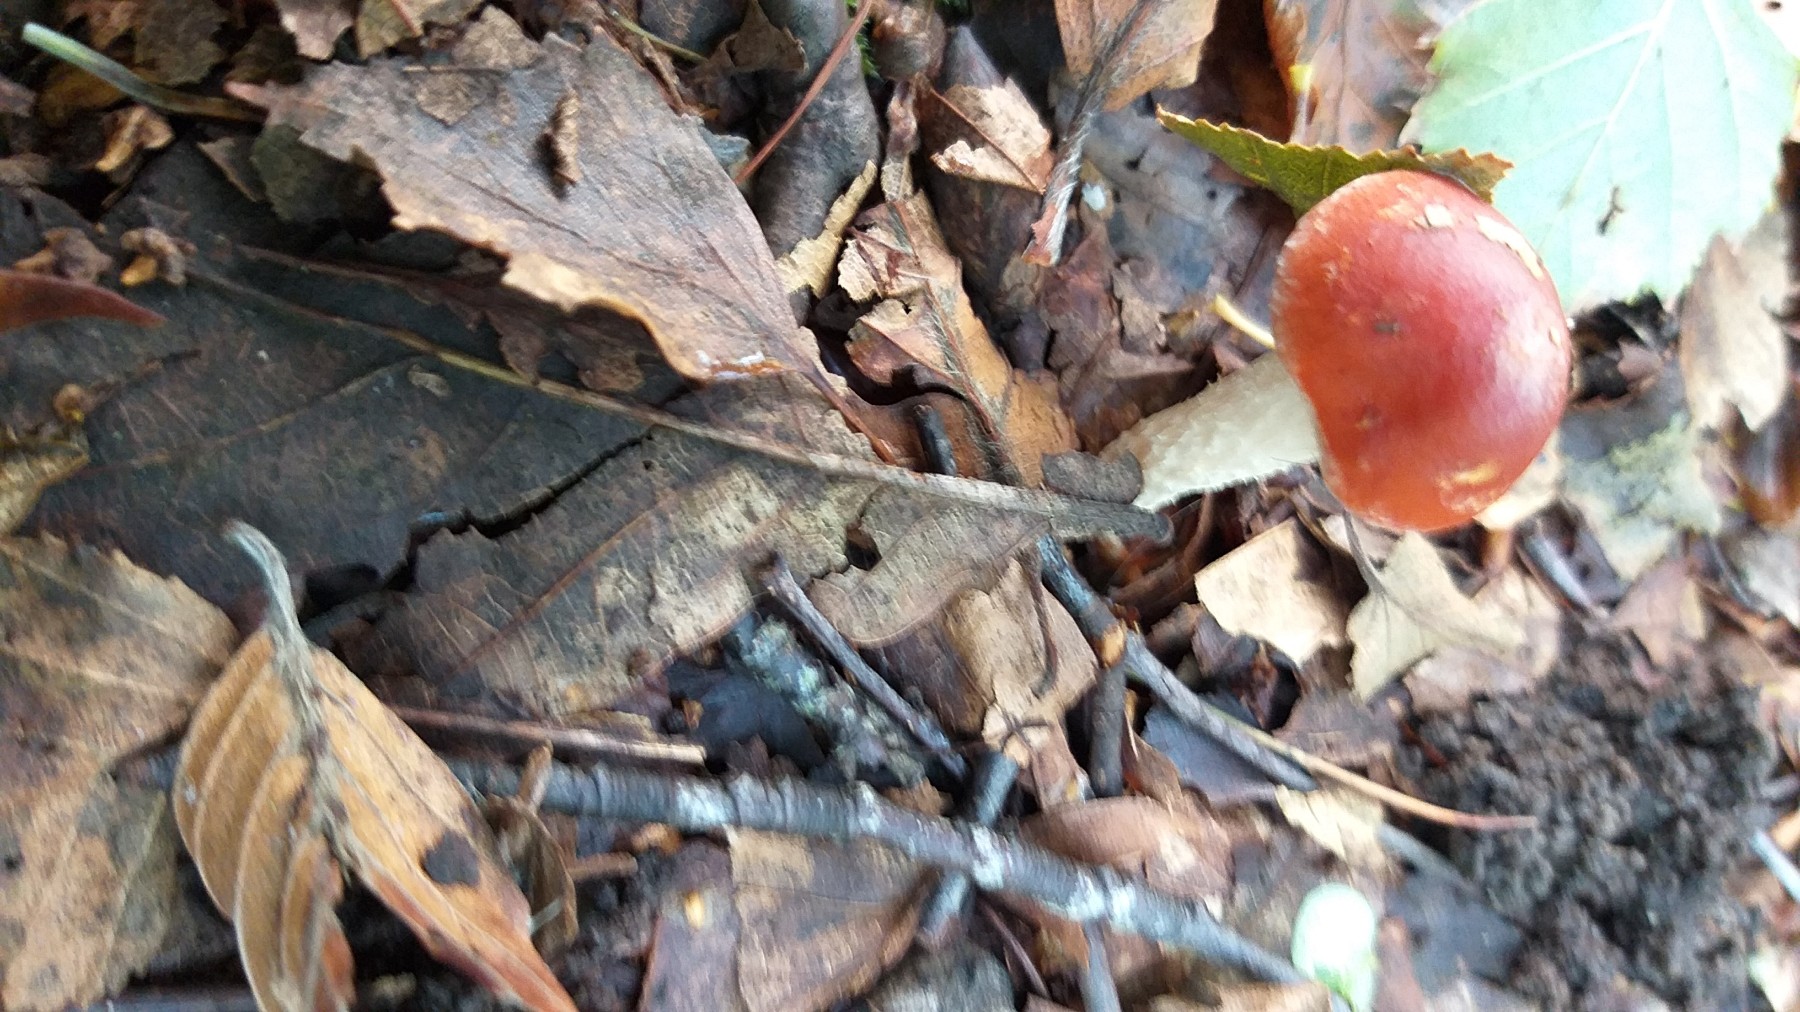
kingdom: Fungi
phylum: Basidiomycota
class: Agaricomycetes
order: Agaricales
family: Strophariaceae
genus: Leratiomyces
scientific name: Leratiomyces ceres
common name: orange bredblad
